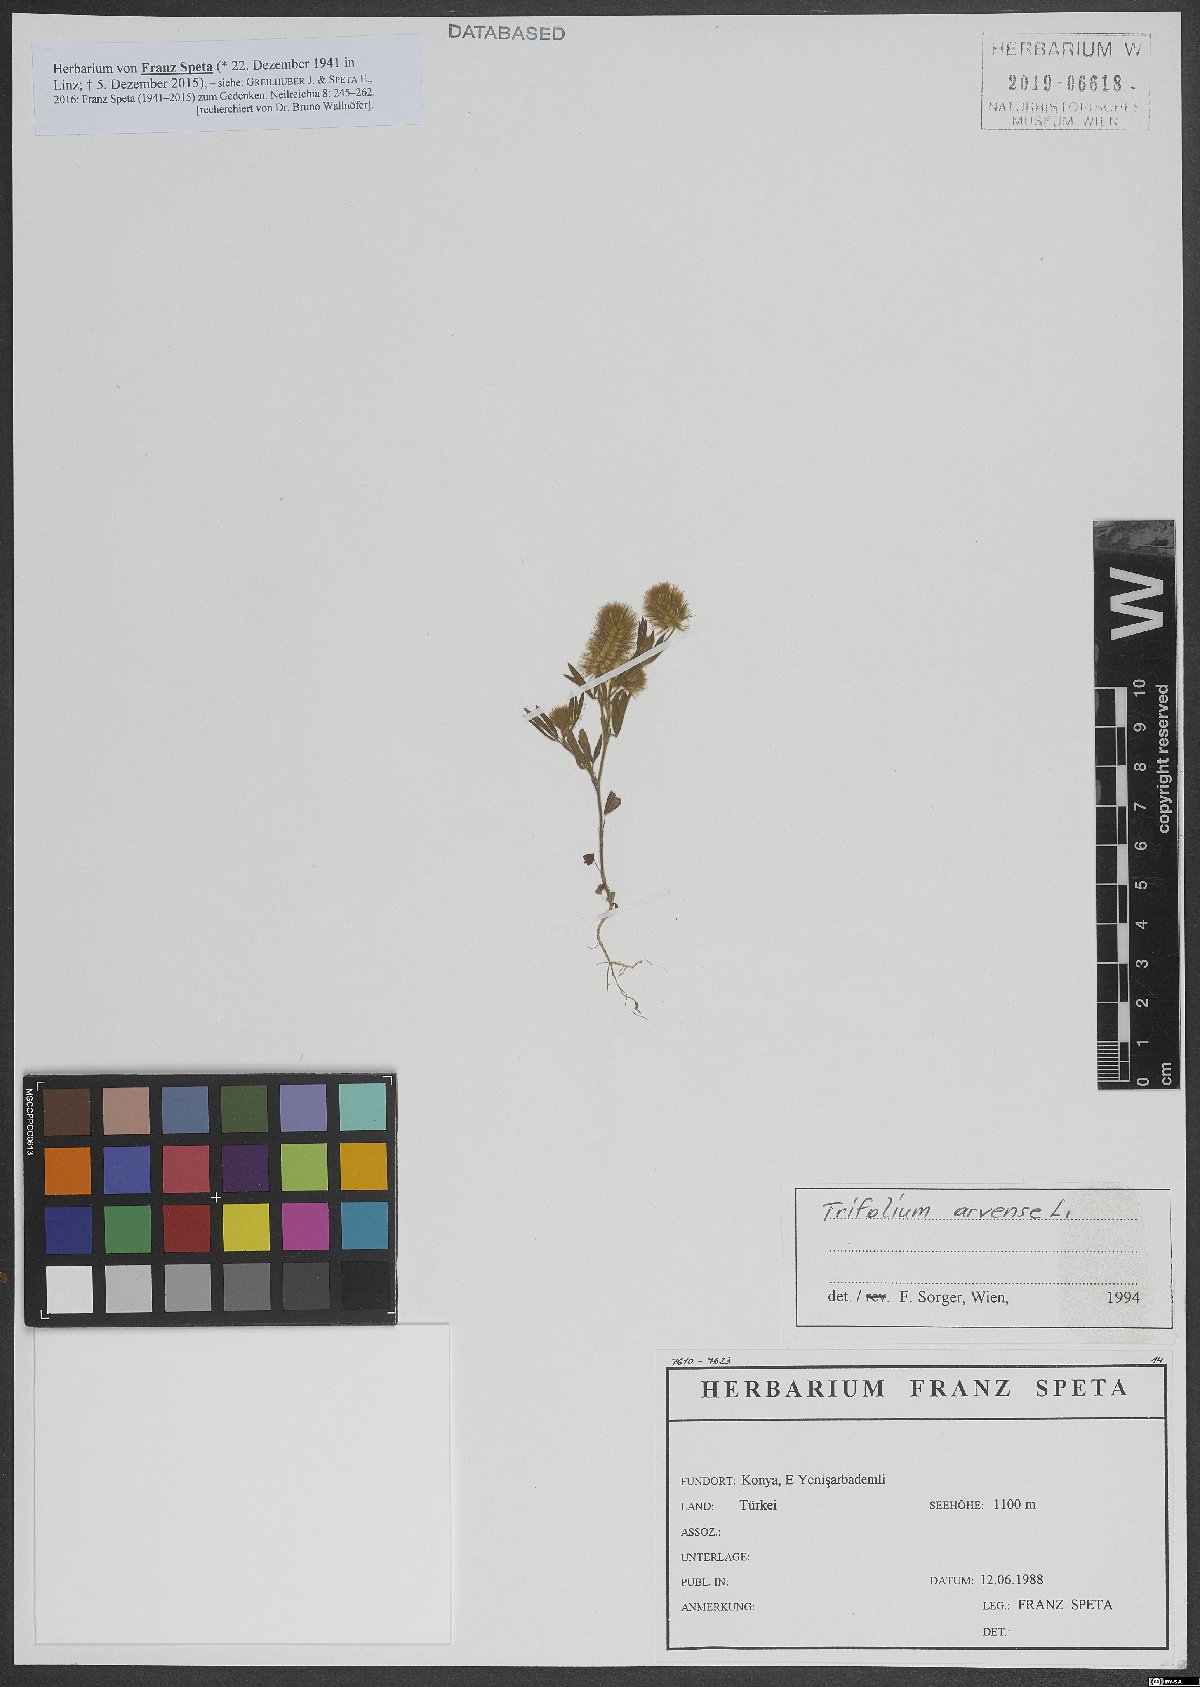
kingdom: Plantae
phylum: Tracheophyta
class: Magnoliopsida
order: Fabales
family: Fabaceae
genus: Trifolium
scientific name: Trifolium arvense
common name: Hare's-foot clover
